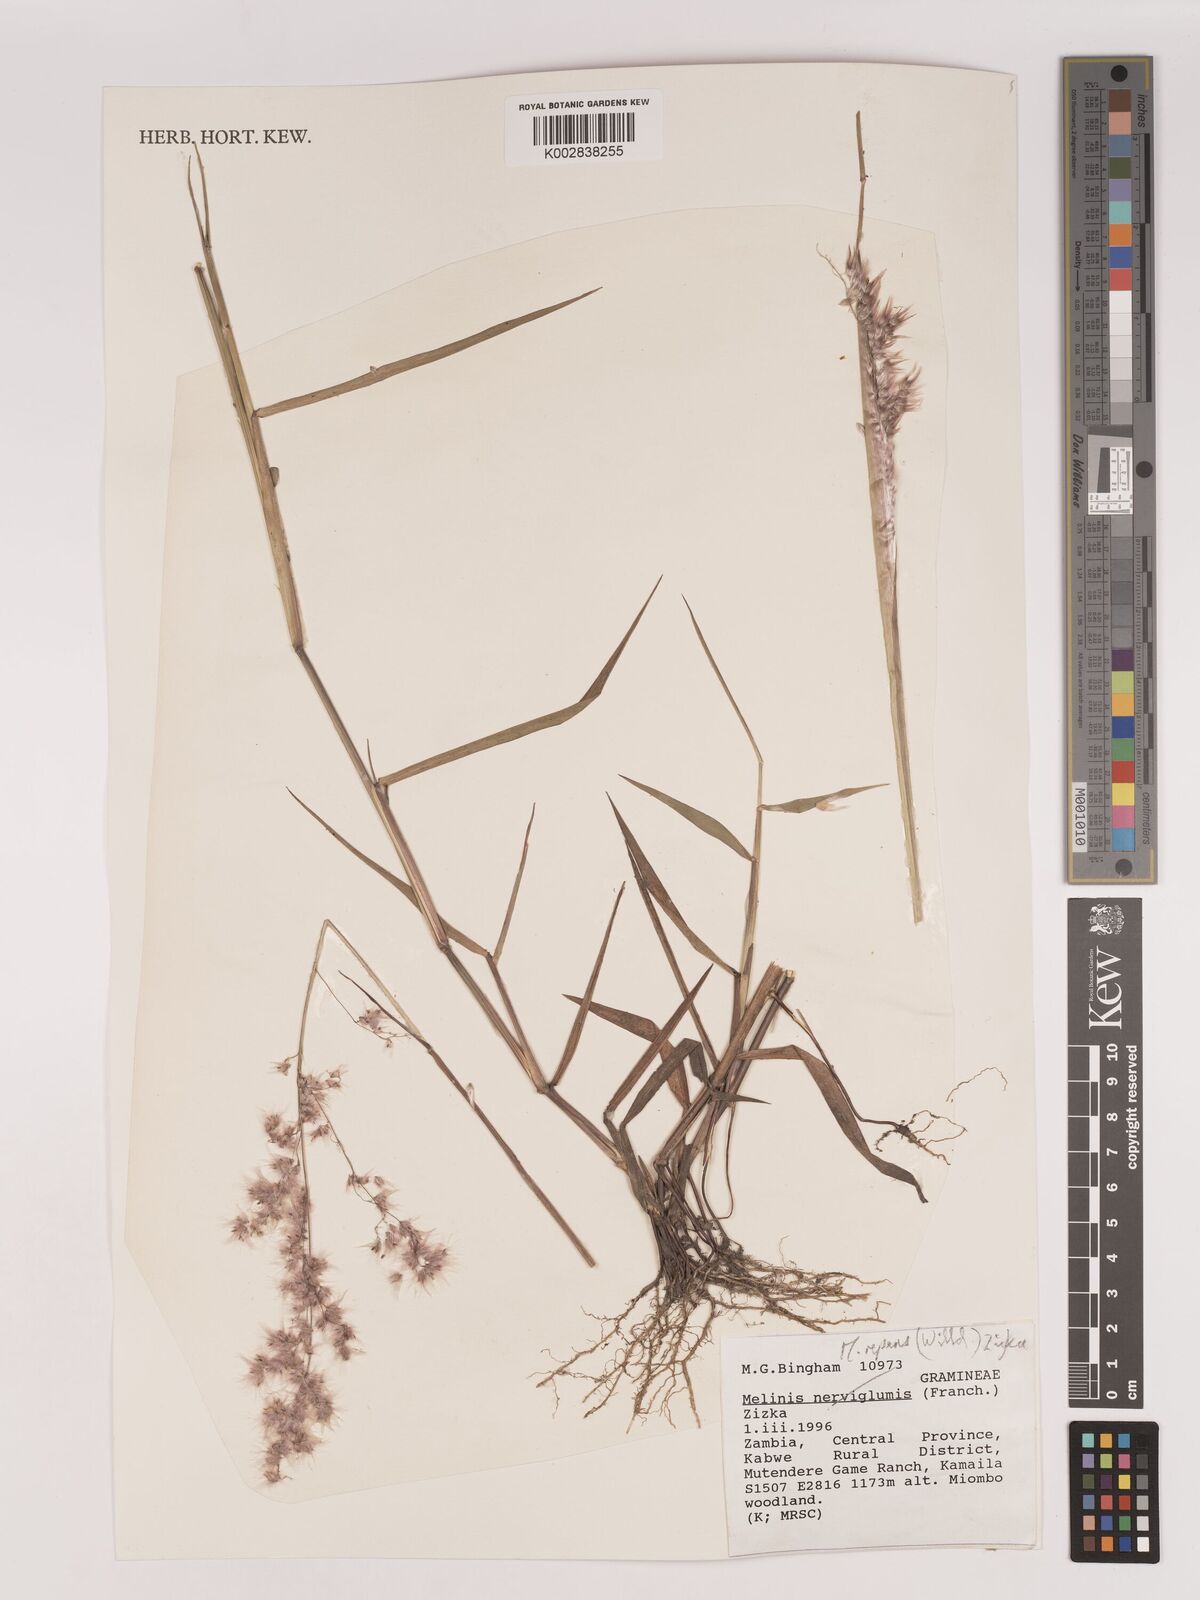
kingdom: Plantae
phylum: Tracheophyta
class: Liliopsida
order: Poales
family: Poaceae
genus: Melinis
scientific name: Melinis repens
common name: Rose natal grass
